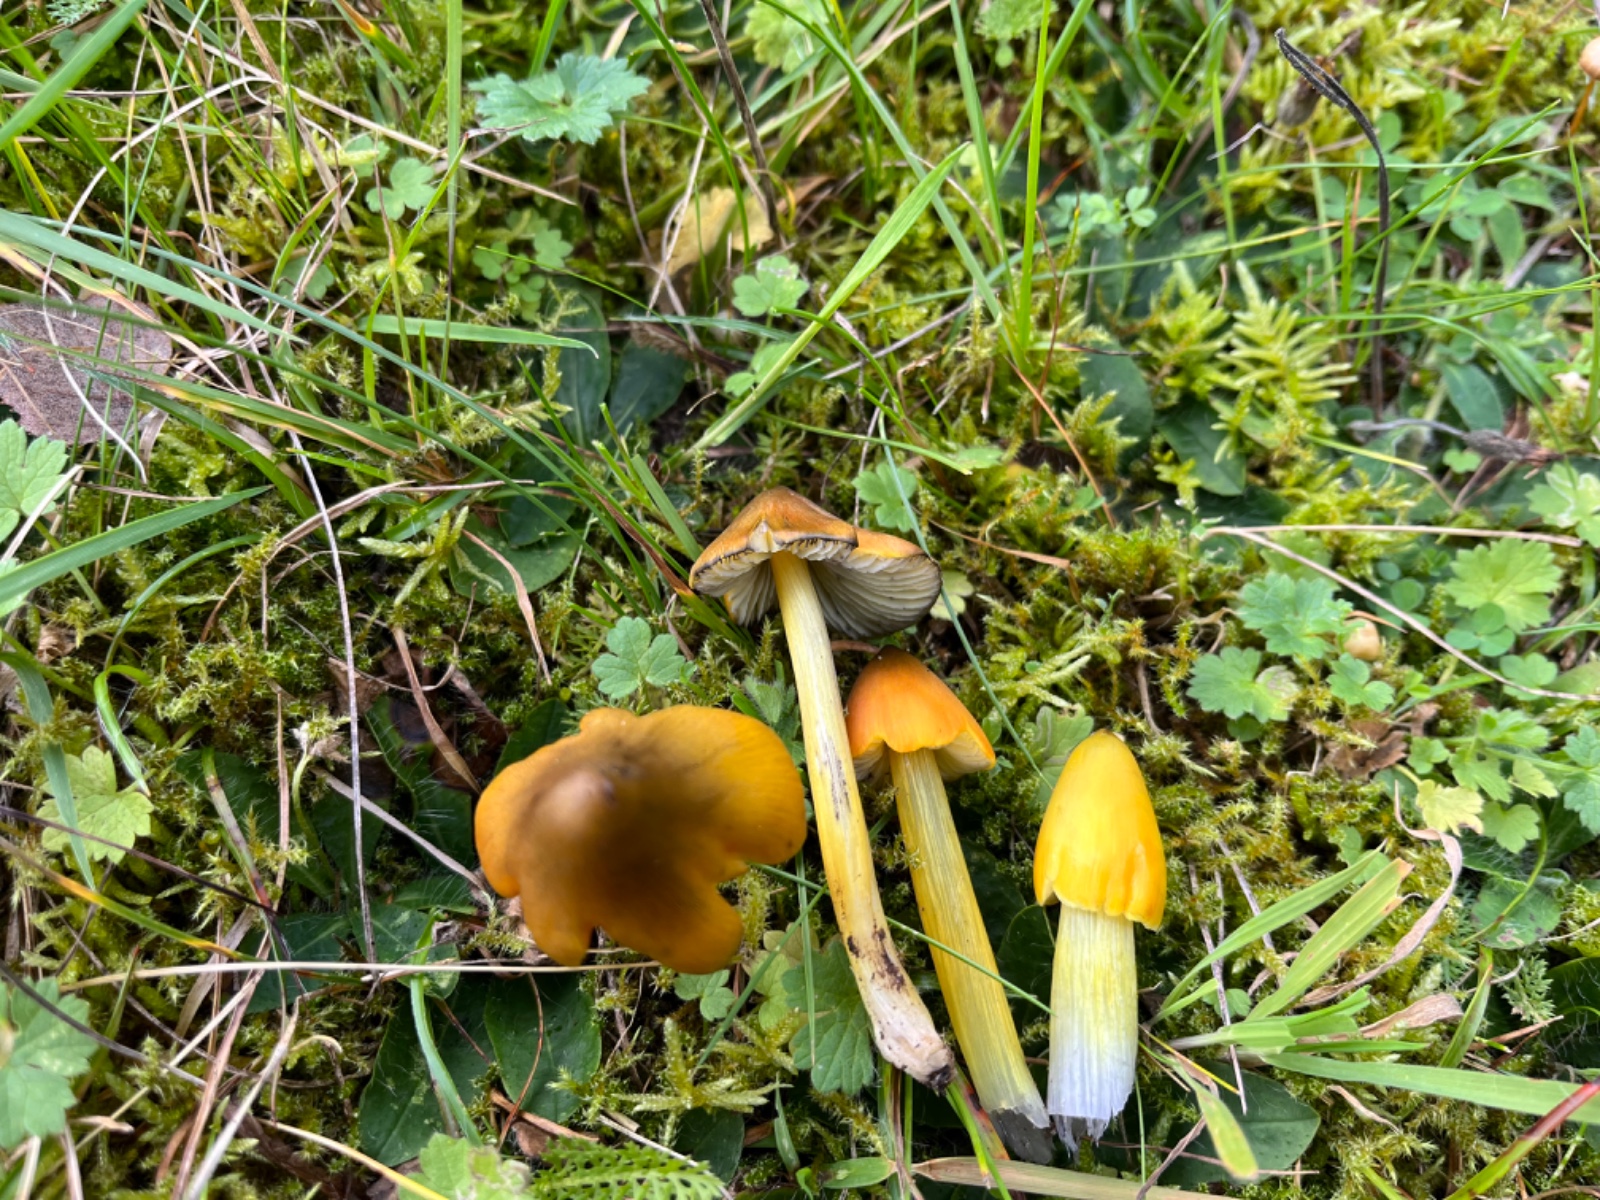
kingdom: Fungi
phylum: Basidiomycota
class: Agaricomycetes
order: Agaricales
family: Hygrophoraceae
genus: Hygrocybe
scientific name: Hygrocybe conica
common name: kegle-vokshat
